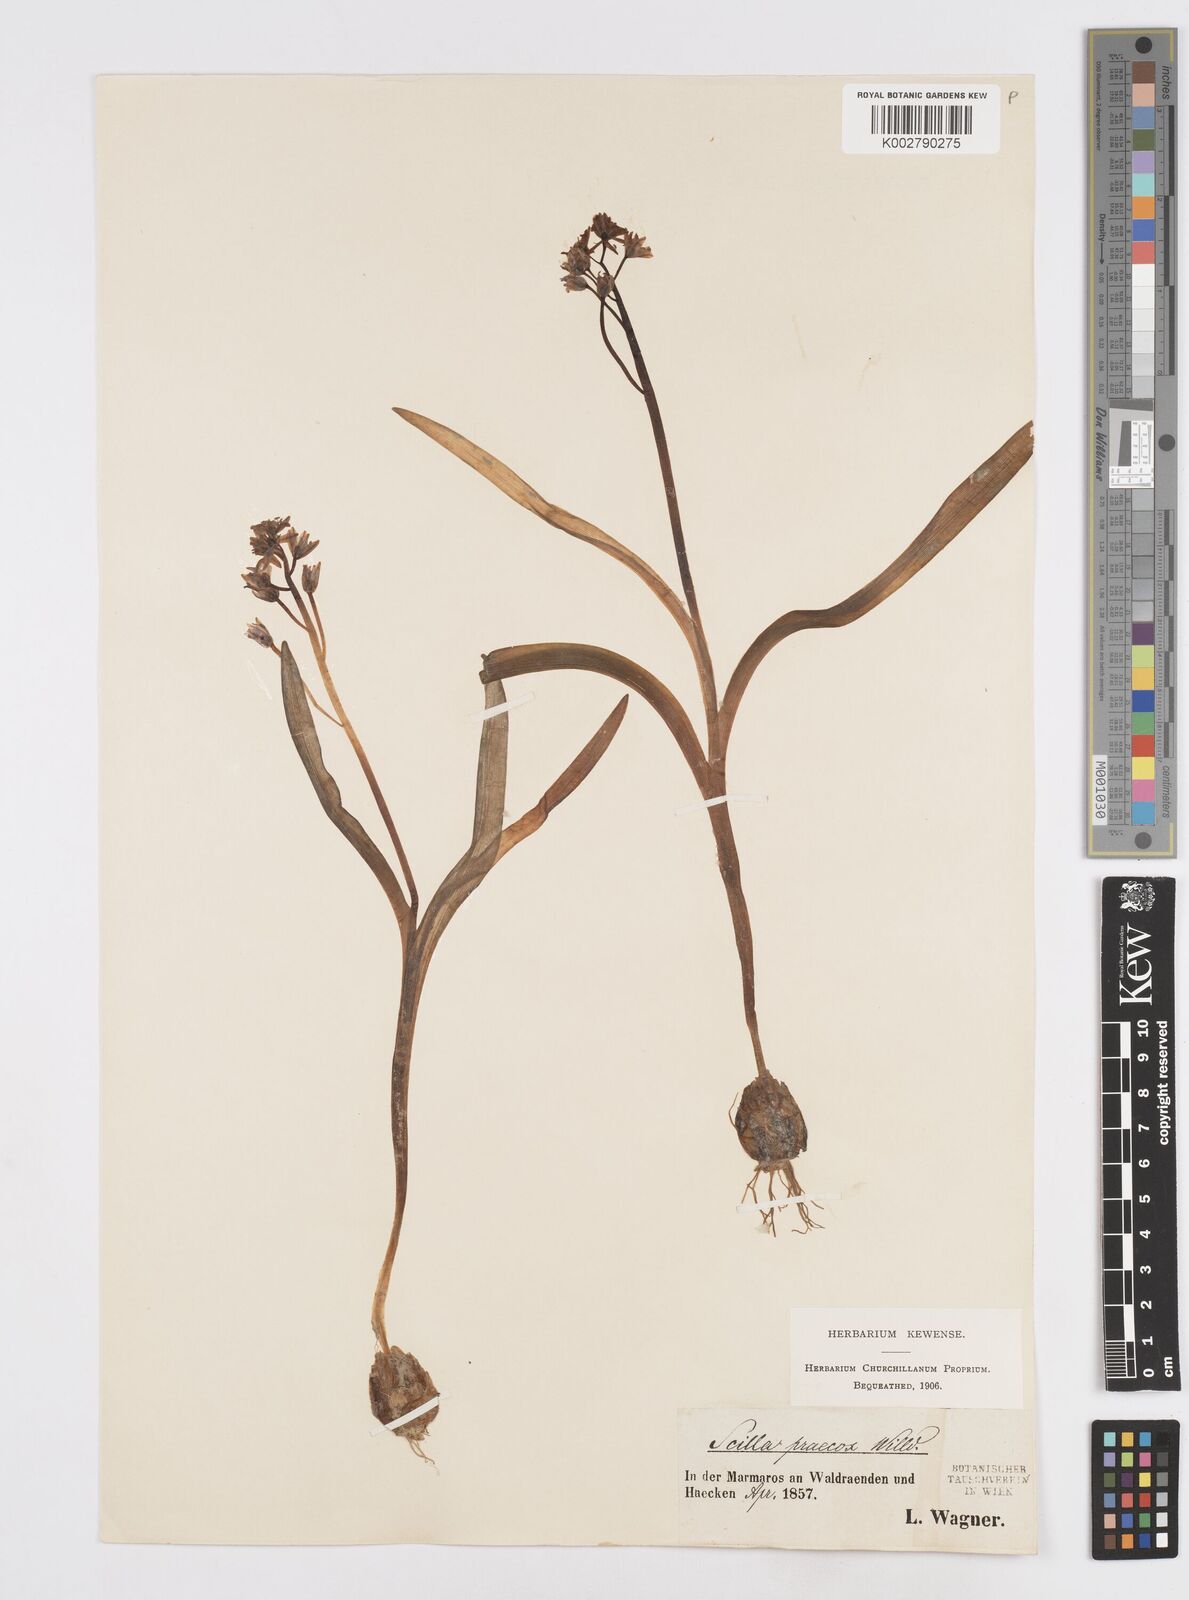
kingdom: Plantae
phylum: Tracheophyta
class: Liliopsida
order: Asparagales
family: Asparagaceae
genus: Scilla
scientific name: Scilla bifolia
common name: Alpine squill
